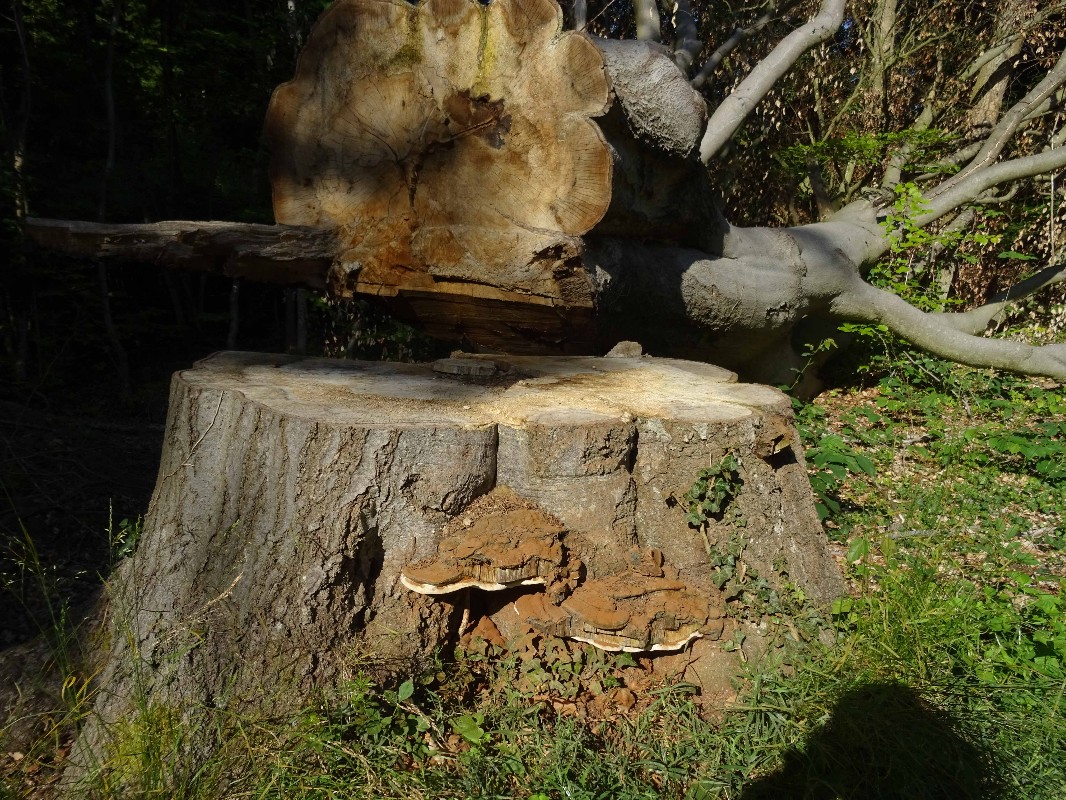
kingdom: Fungi
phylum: Basidiomycota
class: Agaricomycetes
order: Polyporales
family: Polyporaceae
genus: Ganoderma
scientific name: Ganoderma pfeifferi
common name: kobberrød lakporesvamp
